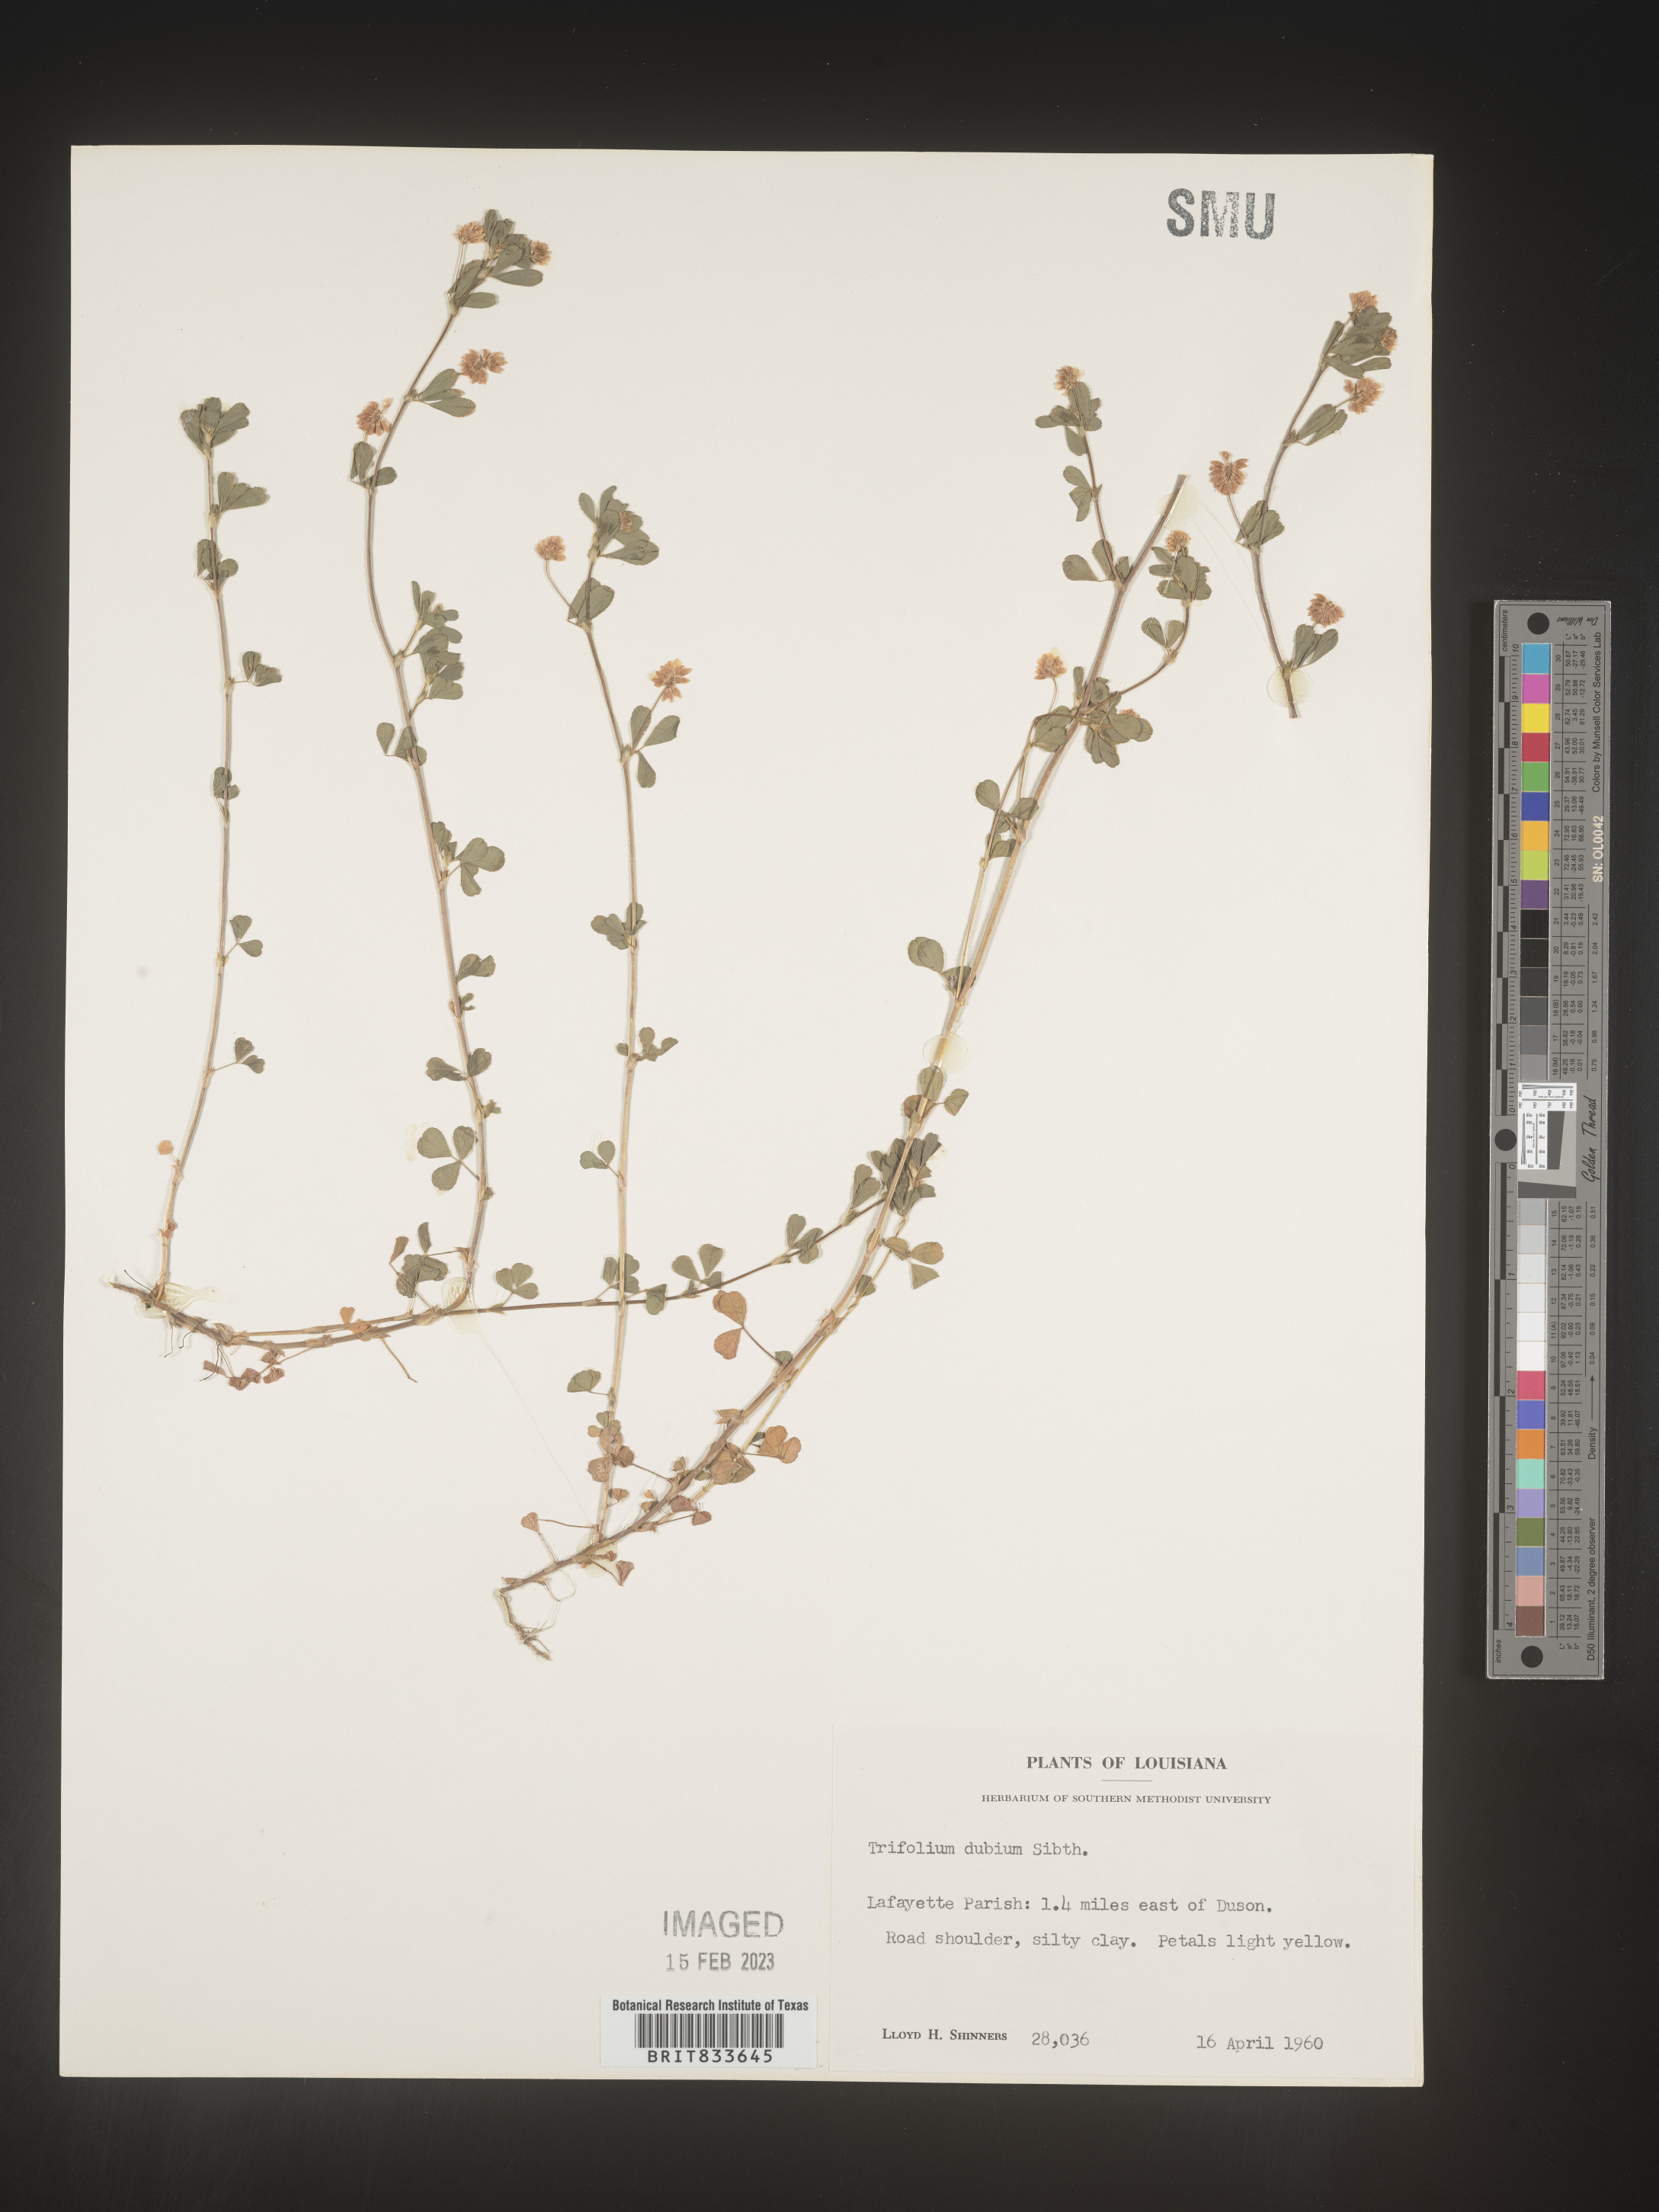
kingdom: Plantae
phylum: Tracheophyta
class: Magnoliopsida
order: Fabales
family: Fabaceae
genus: Trifolium
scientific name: Trifolium dubium
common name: Suckling clover
